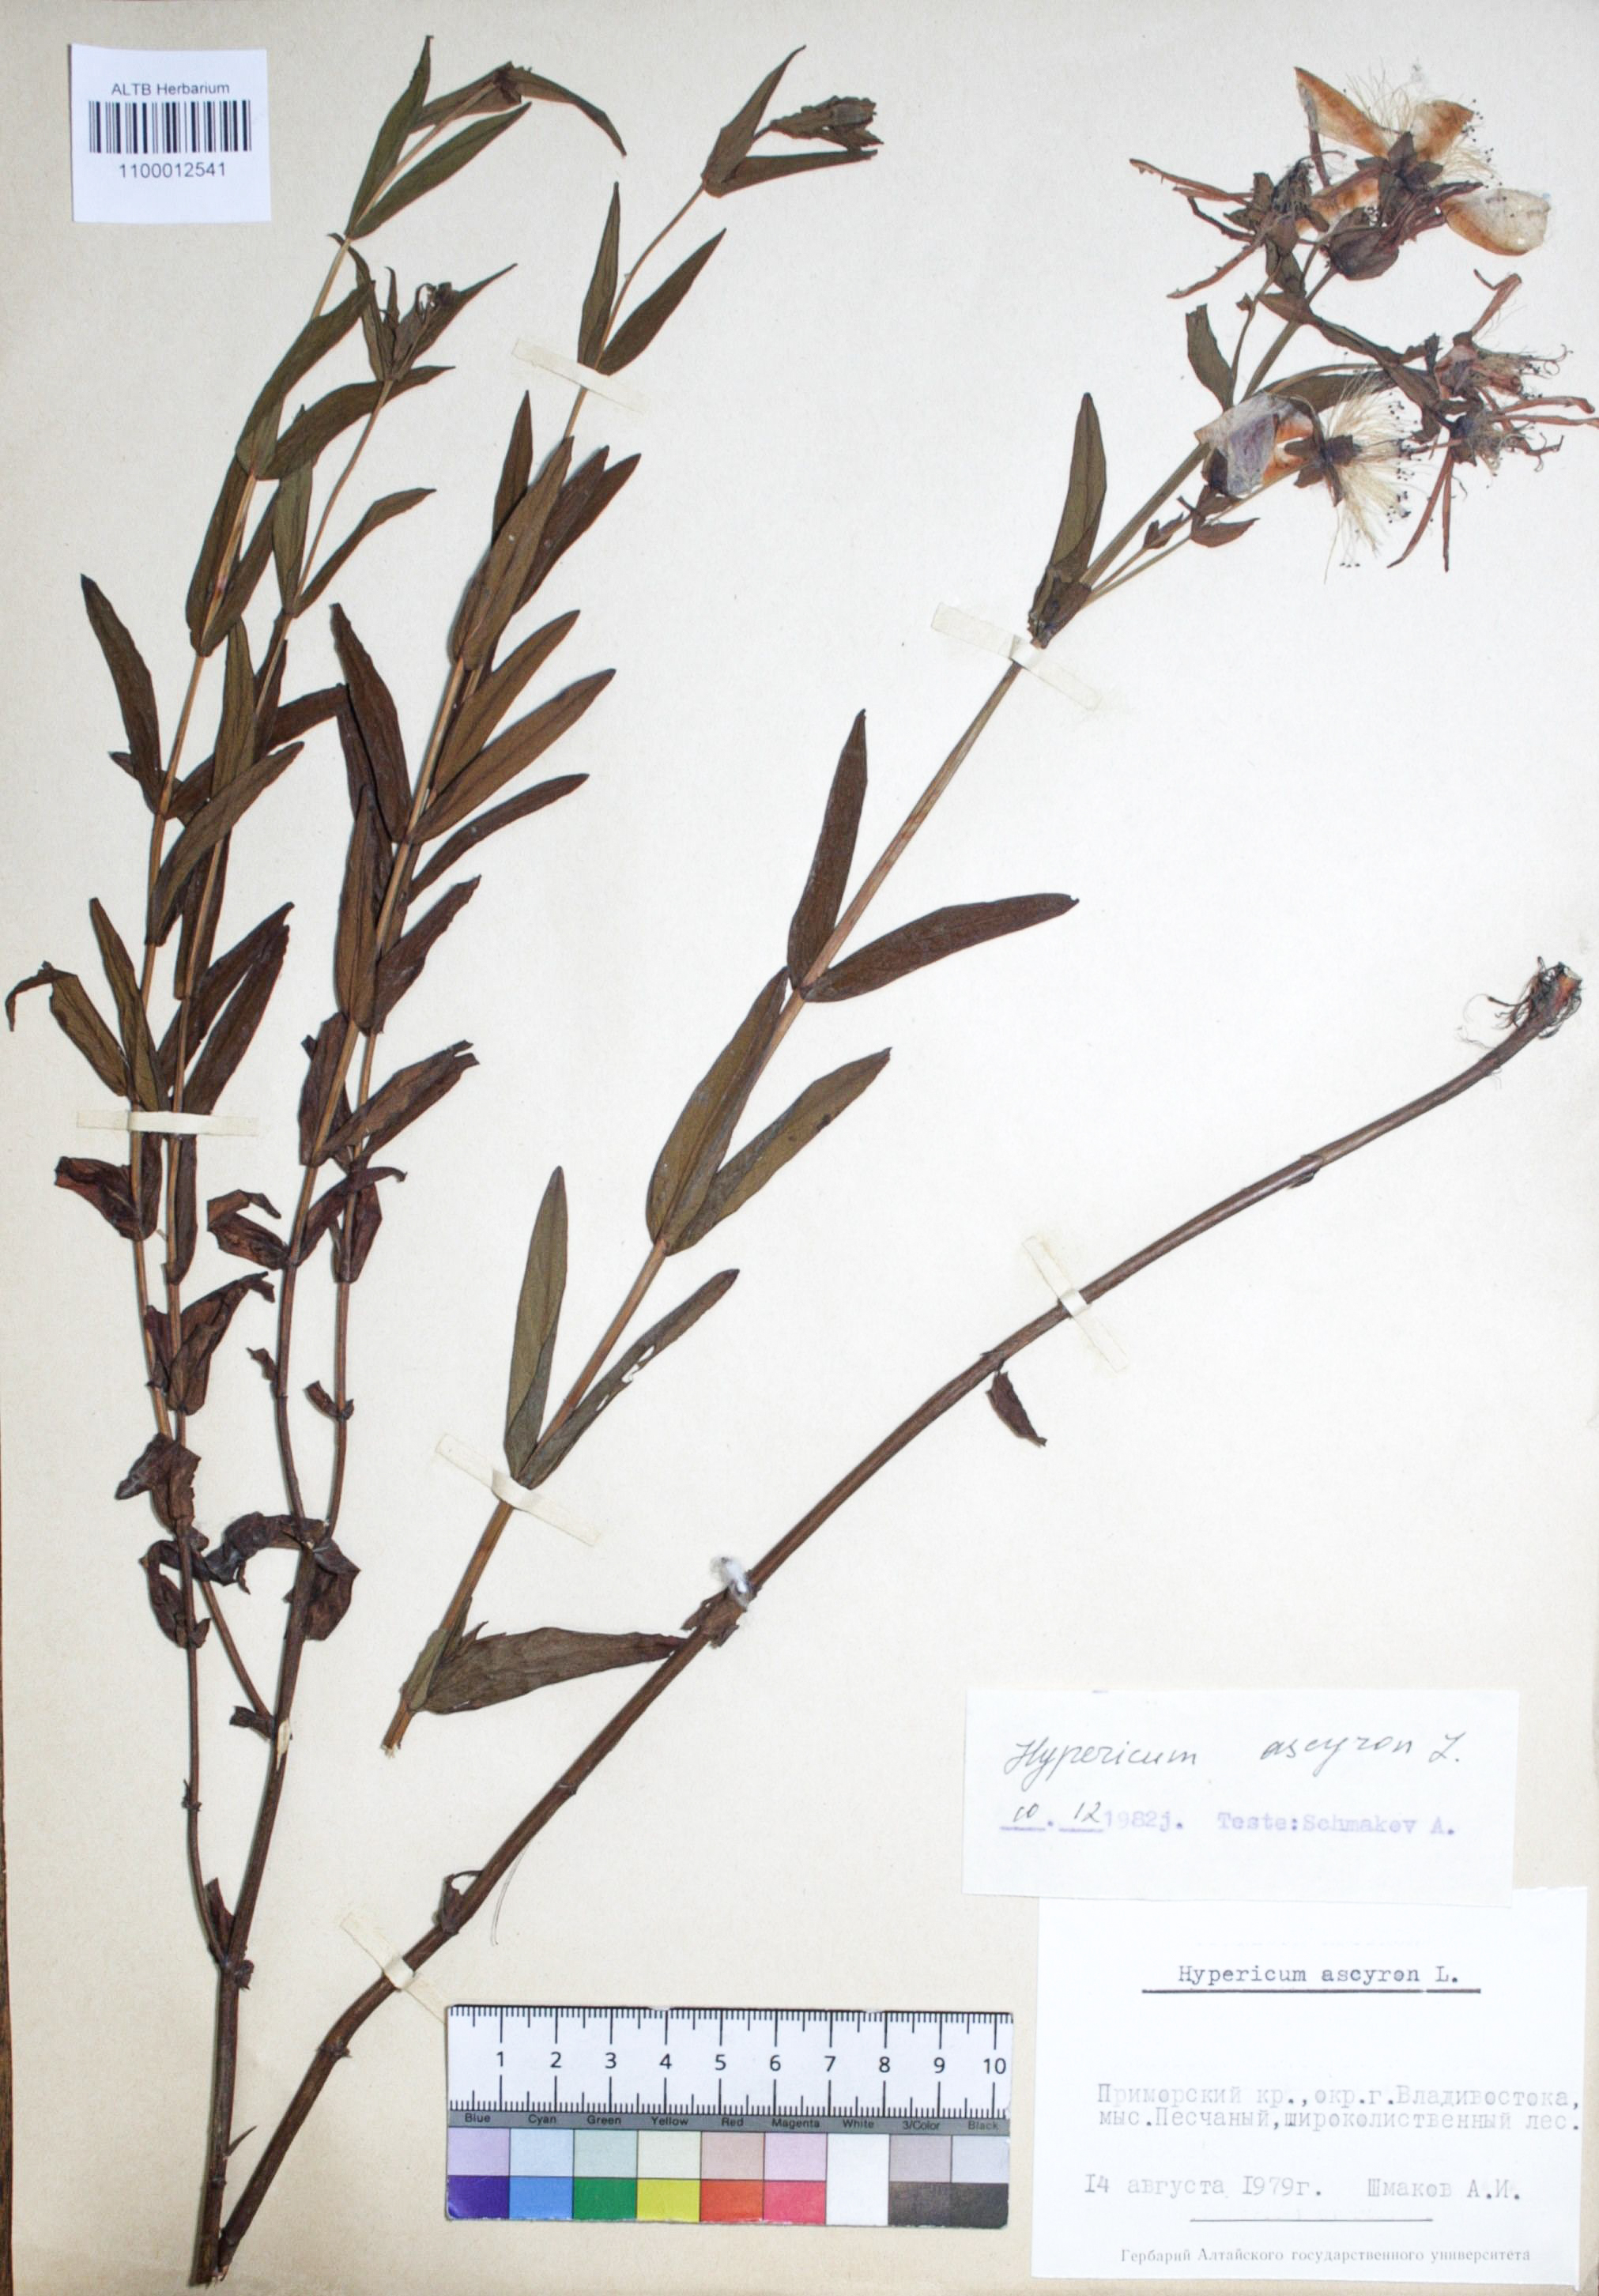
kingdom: Plantae
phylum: Tracheophyta
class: Magnoliopsida
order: Malpighiales
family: Hypericaceae
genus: Hypericum
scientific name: Hypericum ascyron
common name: Giant st. john's-wort
